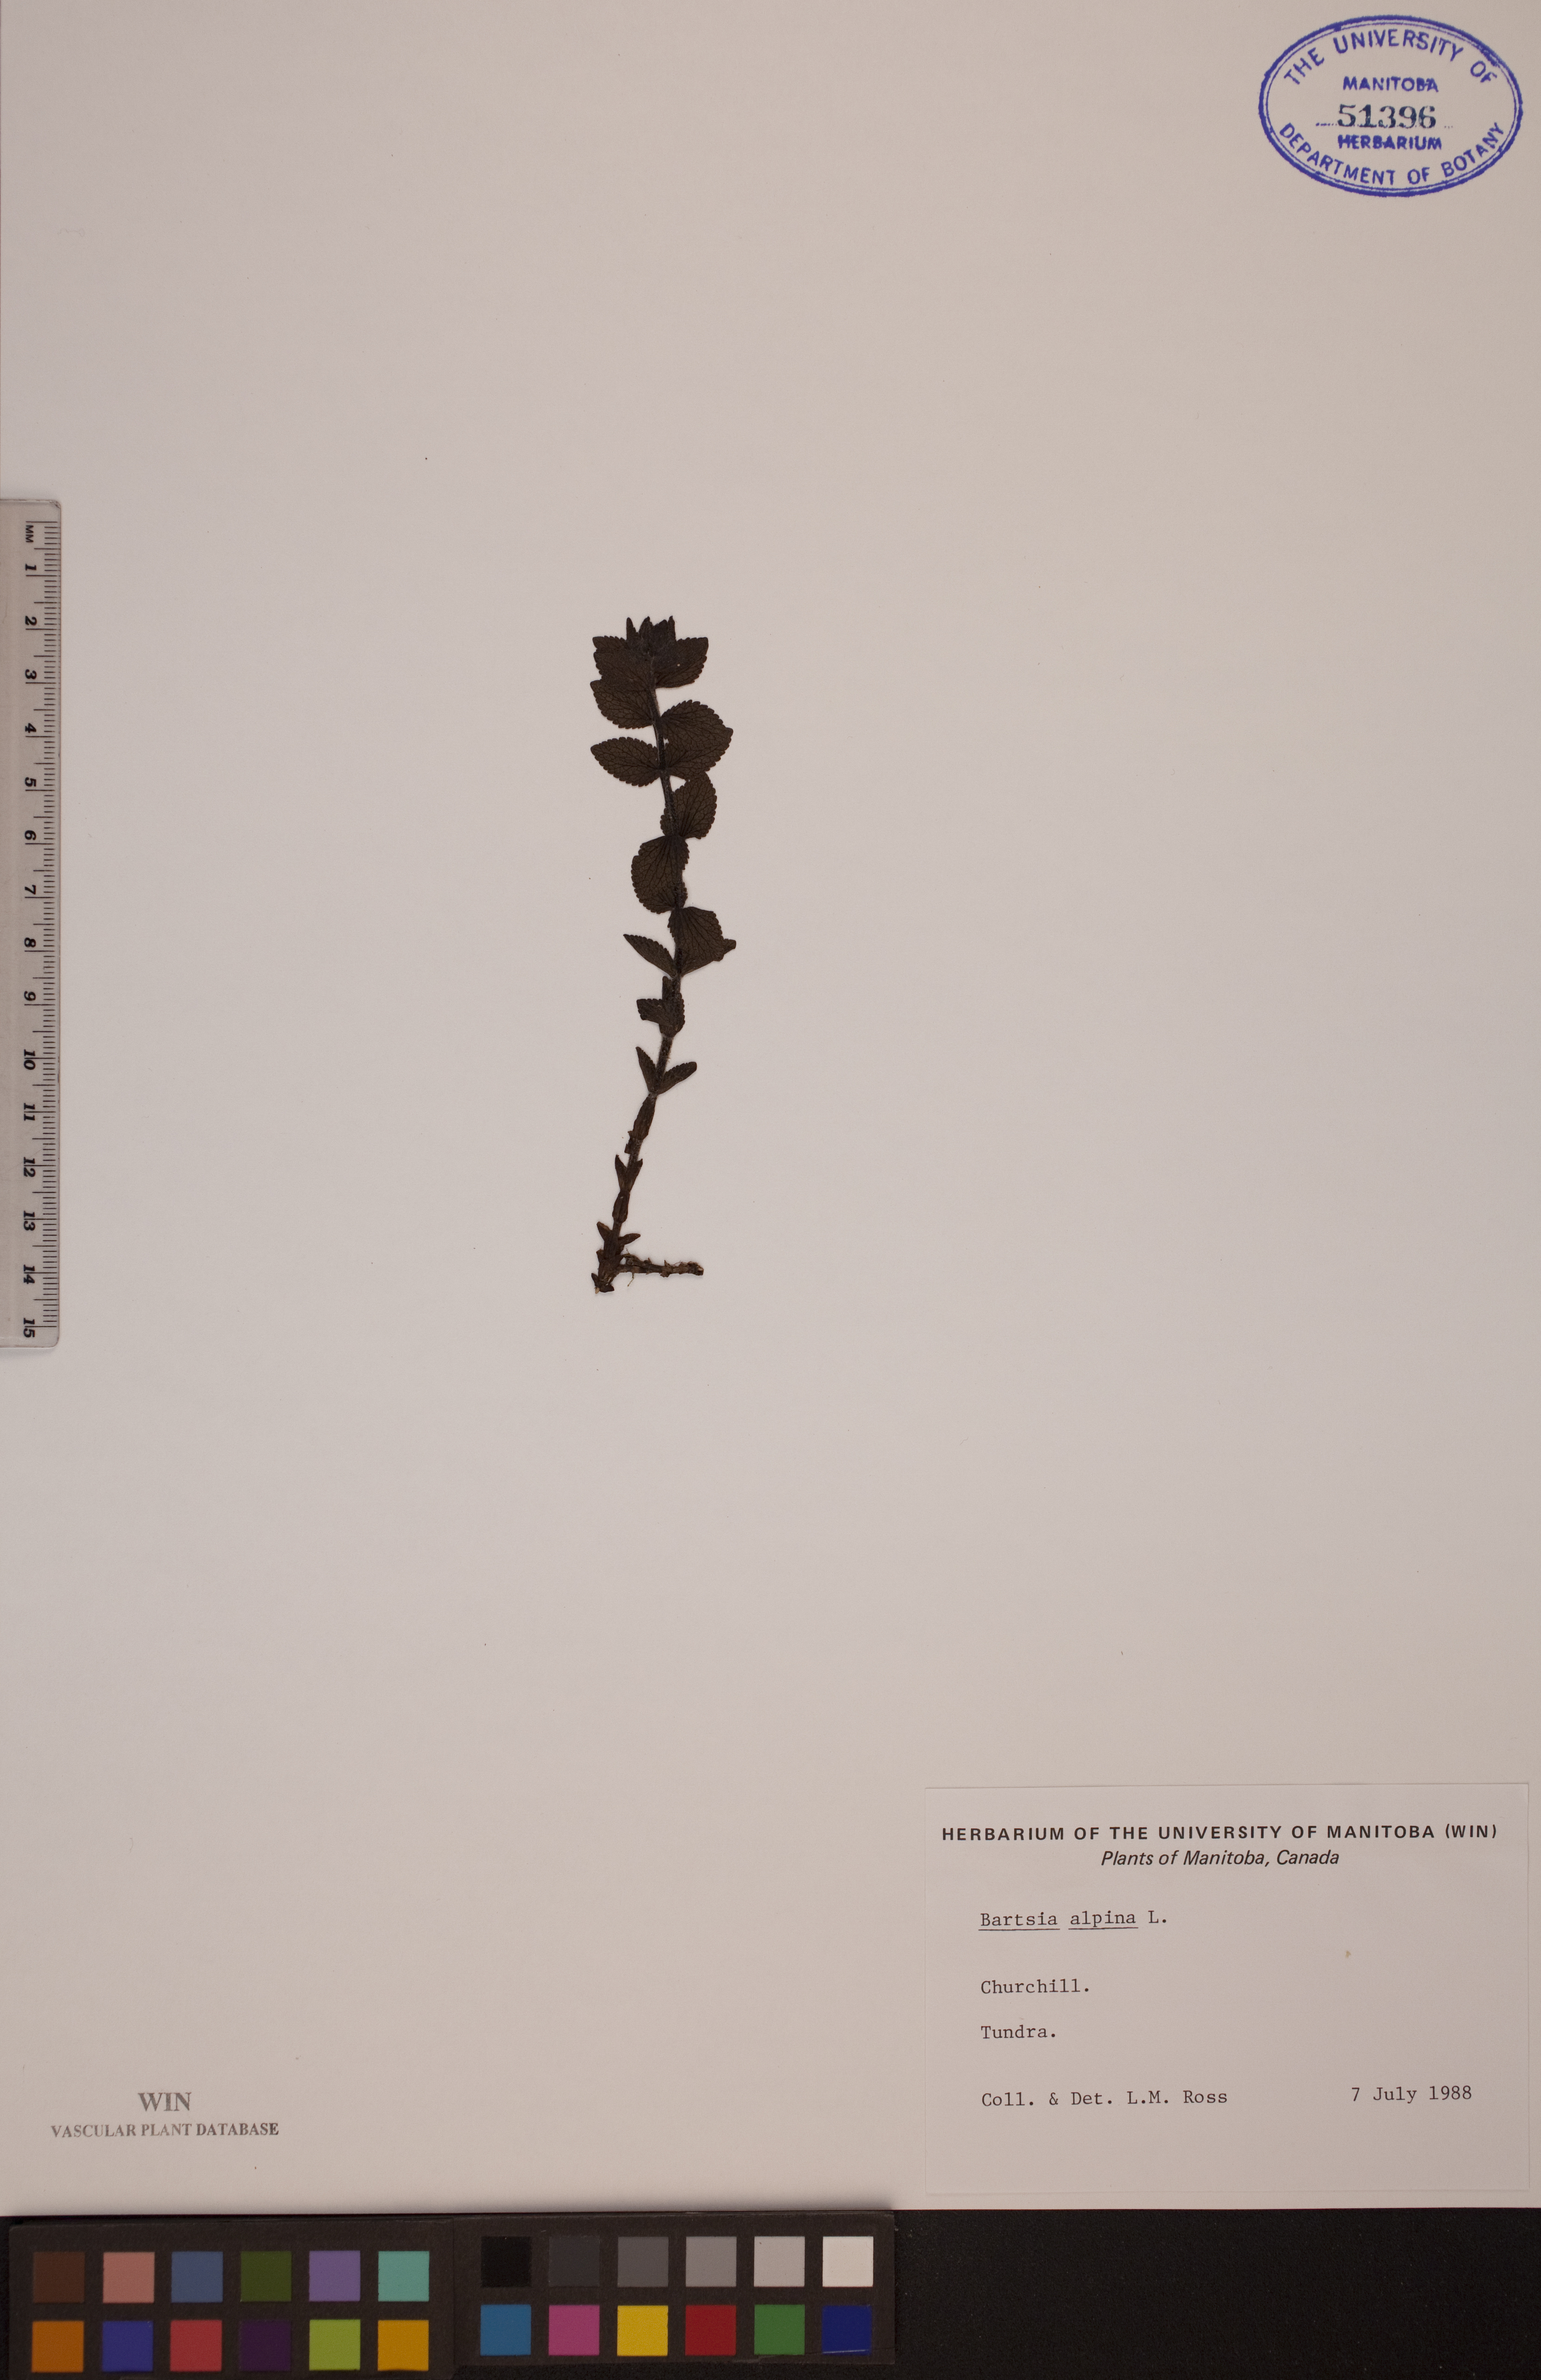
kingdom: Plantae
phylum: Tracheophyta
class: Magnoliopsida
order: Lamiales
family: Orobanchaceae
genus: Bartsia
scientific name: Bartsia alpina
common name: Alpine bartsia
